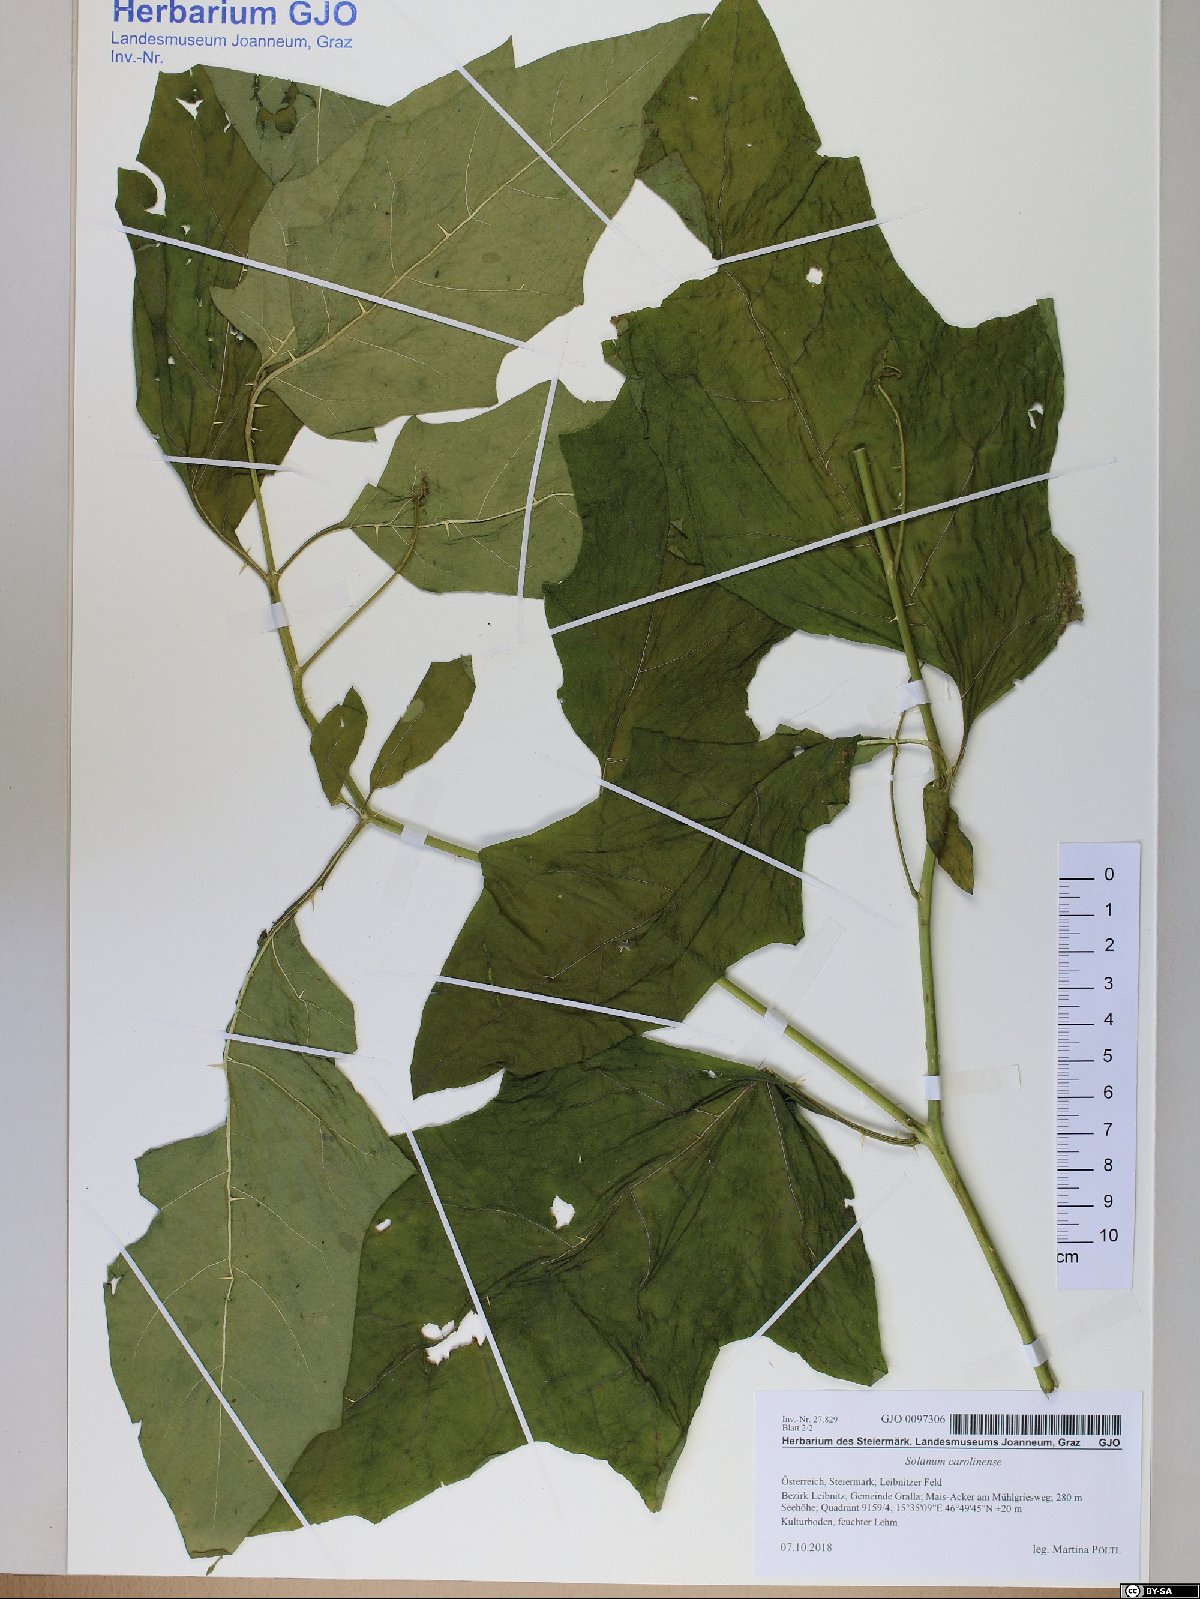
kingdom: Plantae
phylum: Tracheophyta
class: Magnoliopsida
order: Solanales
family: Solanaceae
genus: Solanum
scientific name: Solanum carolinense
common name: Horse-nettle
